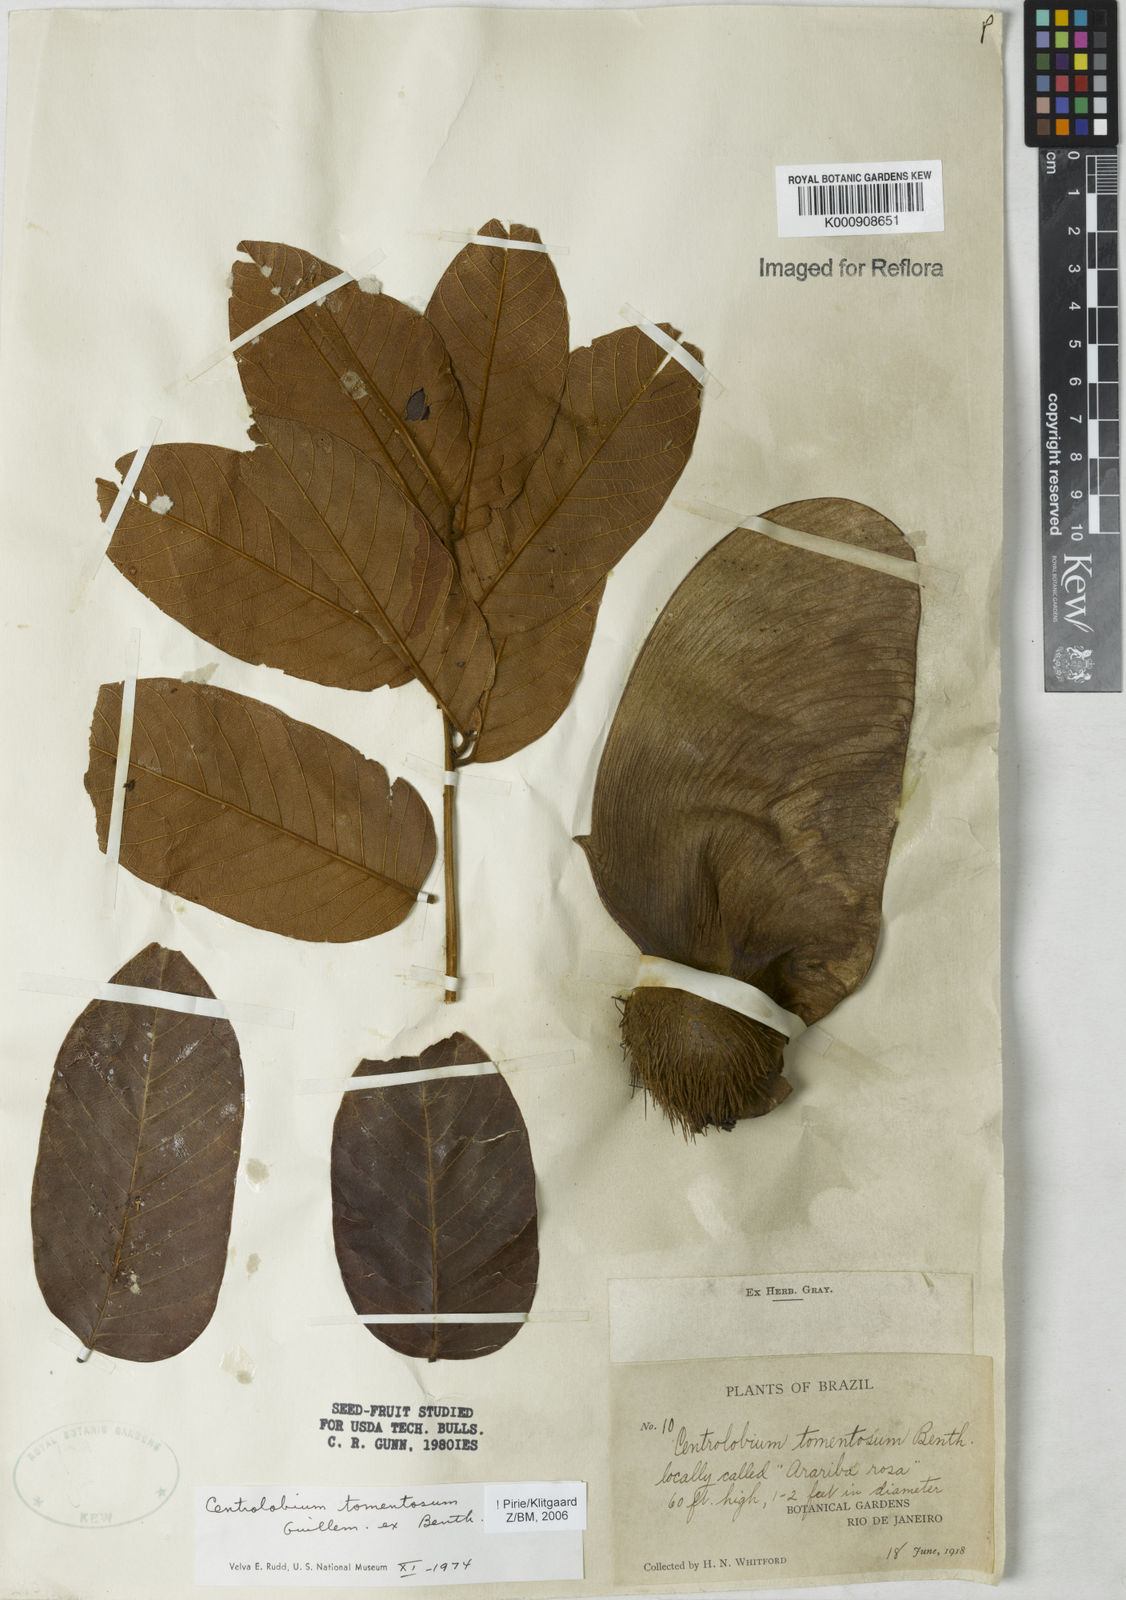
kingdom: Plantae
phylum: Tracheophyta
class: Magnoliopsida
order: Fabales
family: Fabaceae
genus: Centrolobium
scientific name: Centrolobium tomentosum
